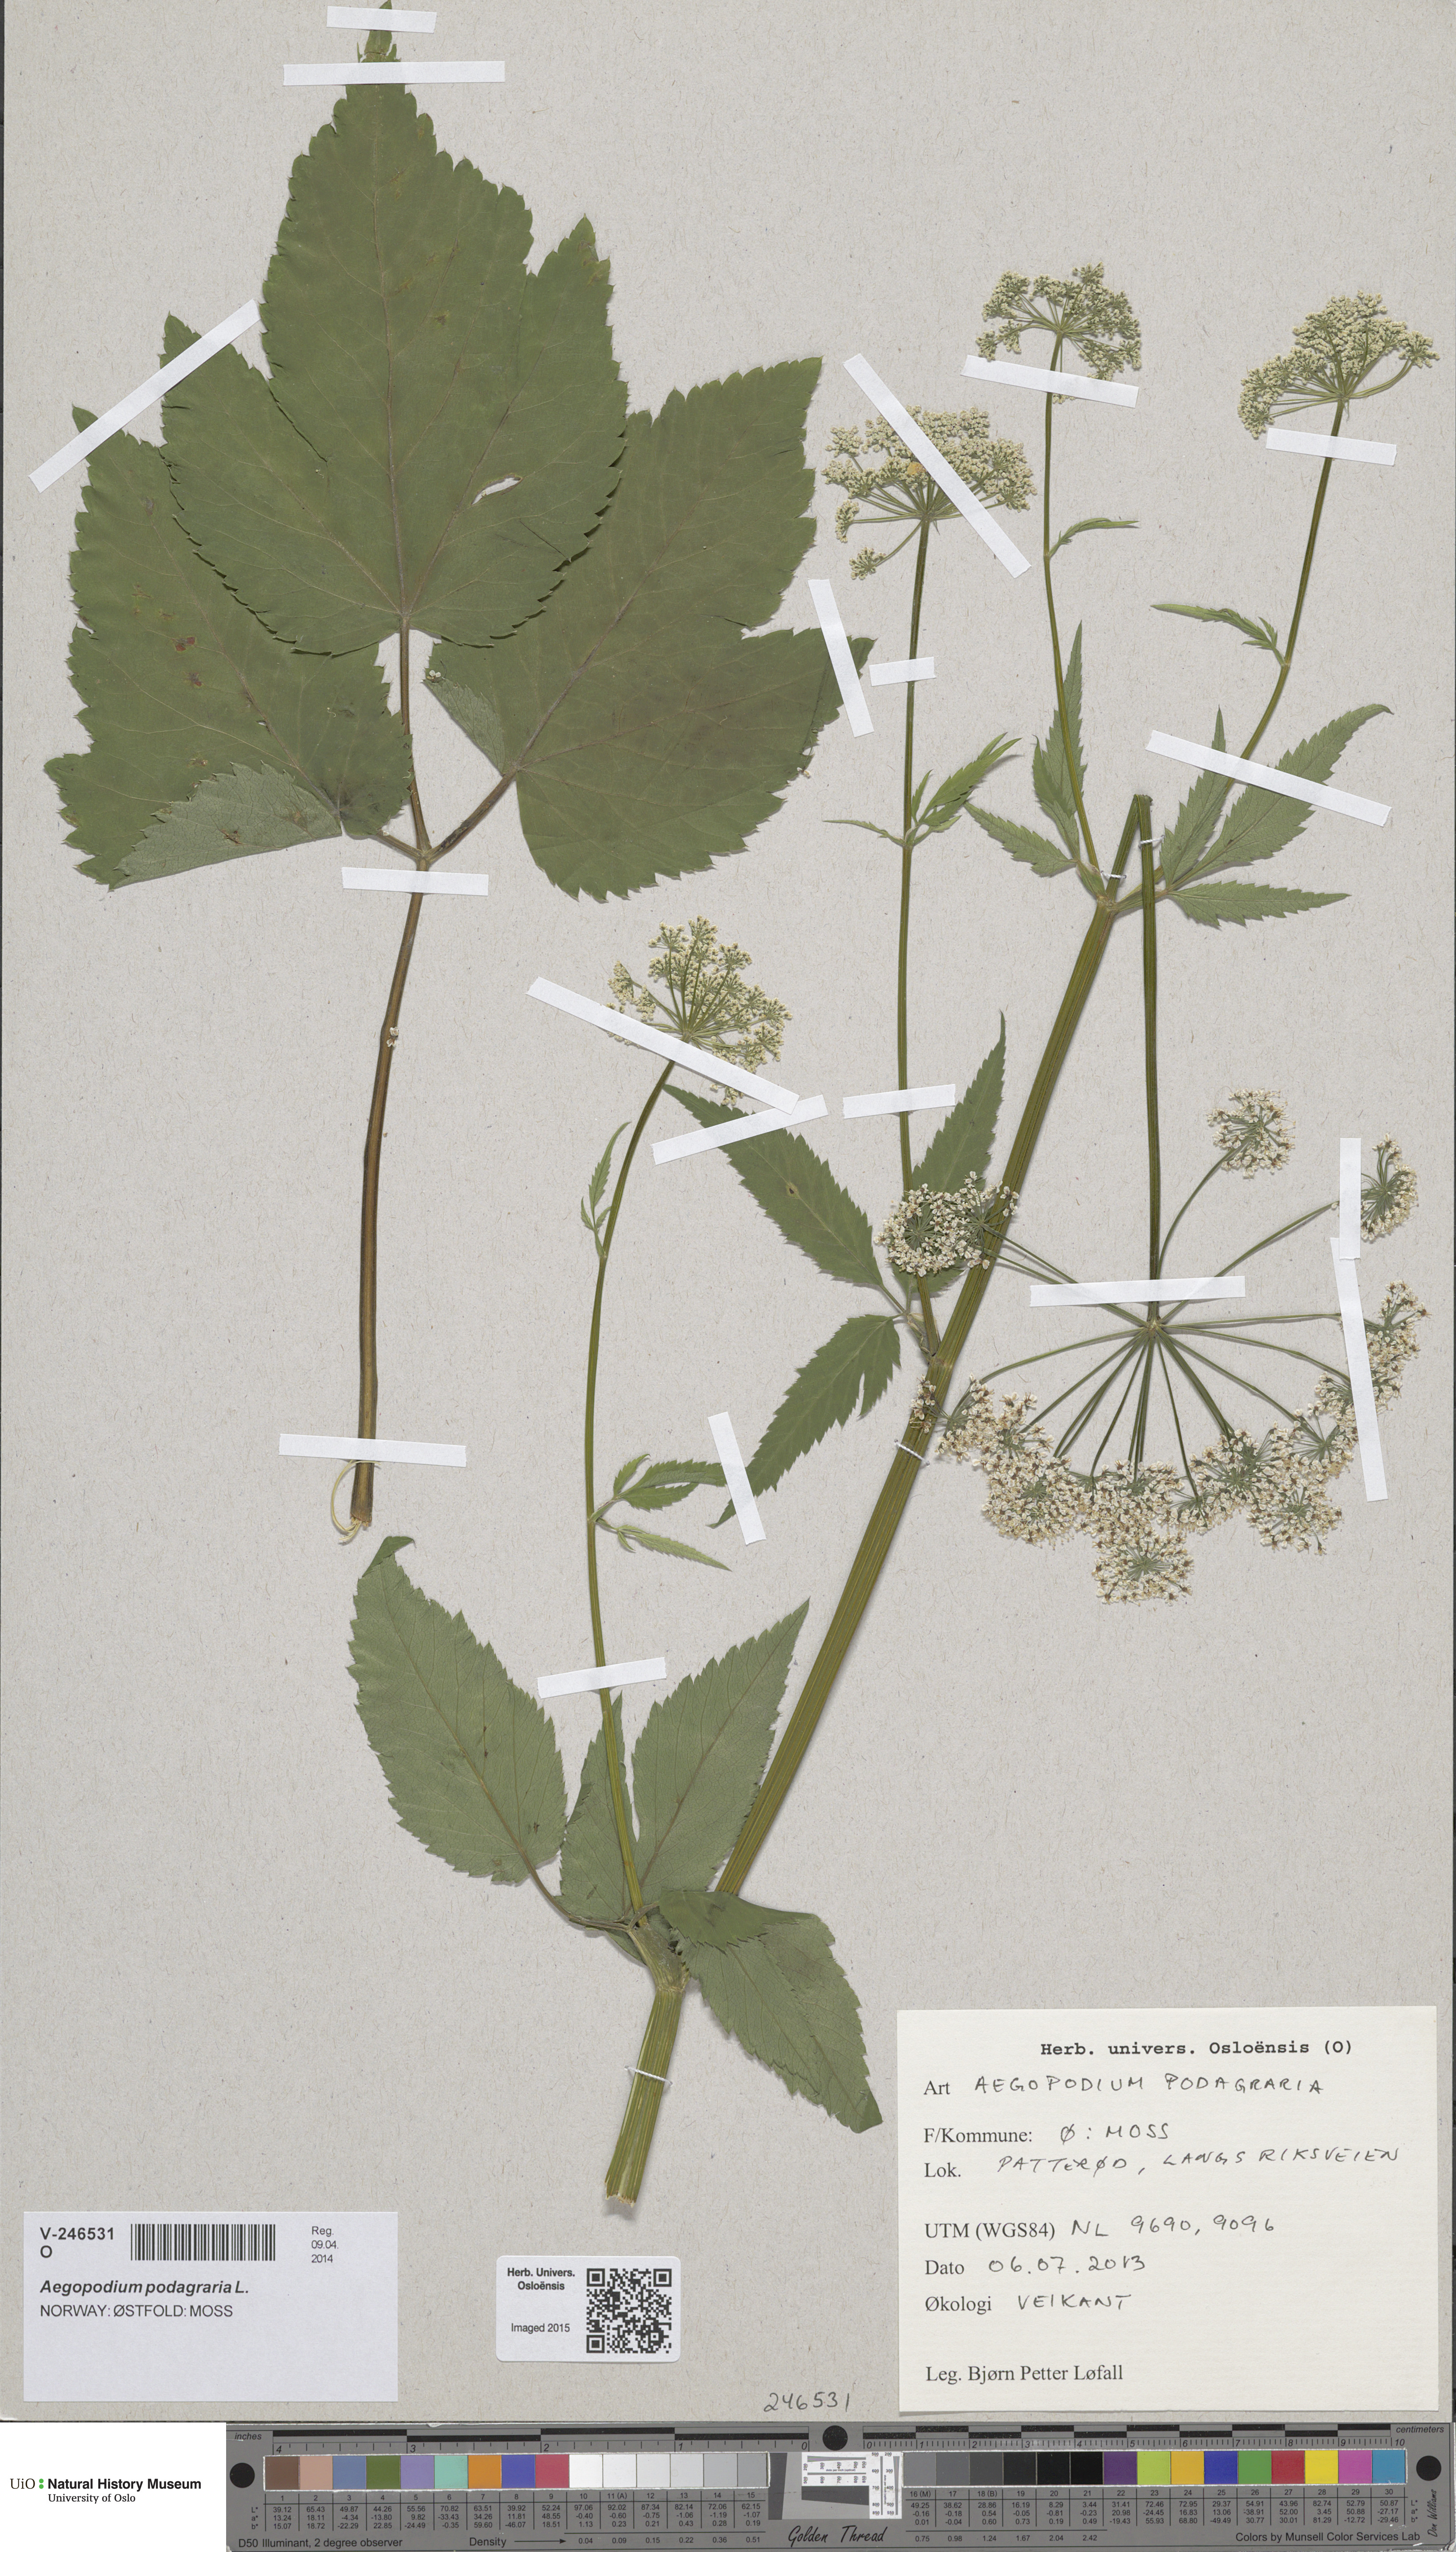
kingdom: Plantae
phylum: Tracheophyta
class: Magnoliopsida
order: Apiales
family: Apiaceae
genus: Aegopodium
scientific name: Aegopodium podagraria
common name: Ground-elder
